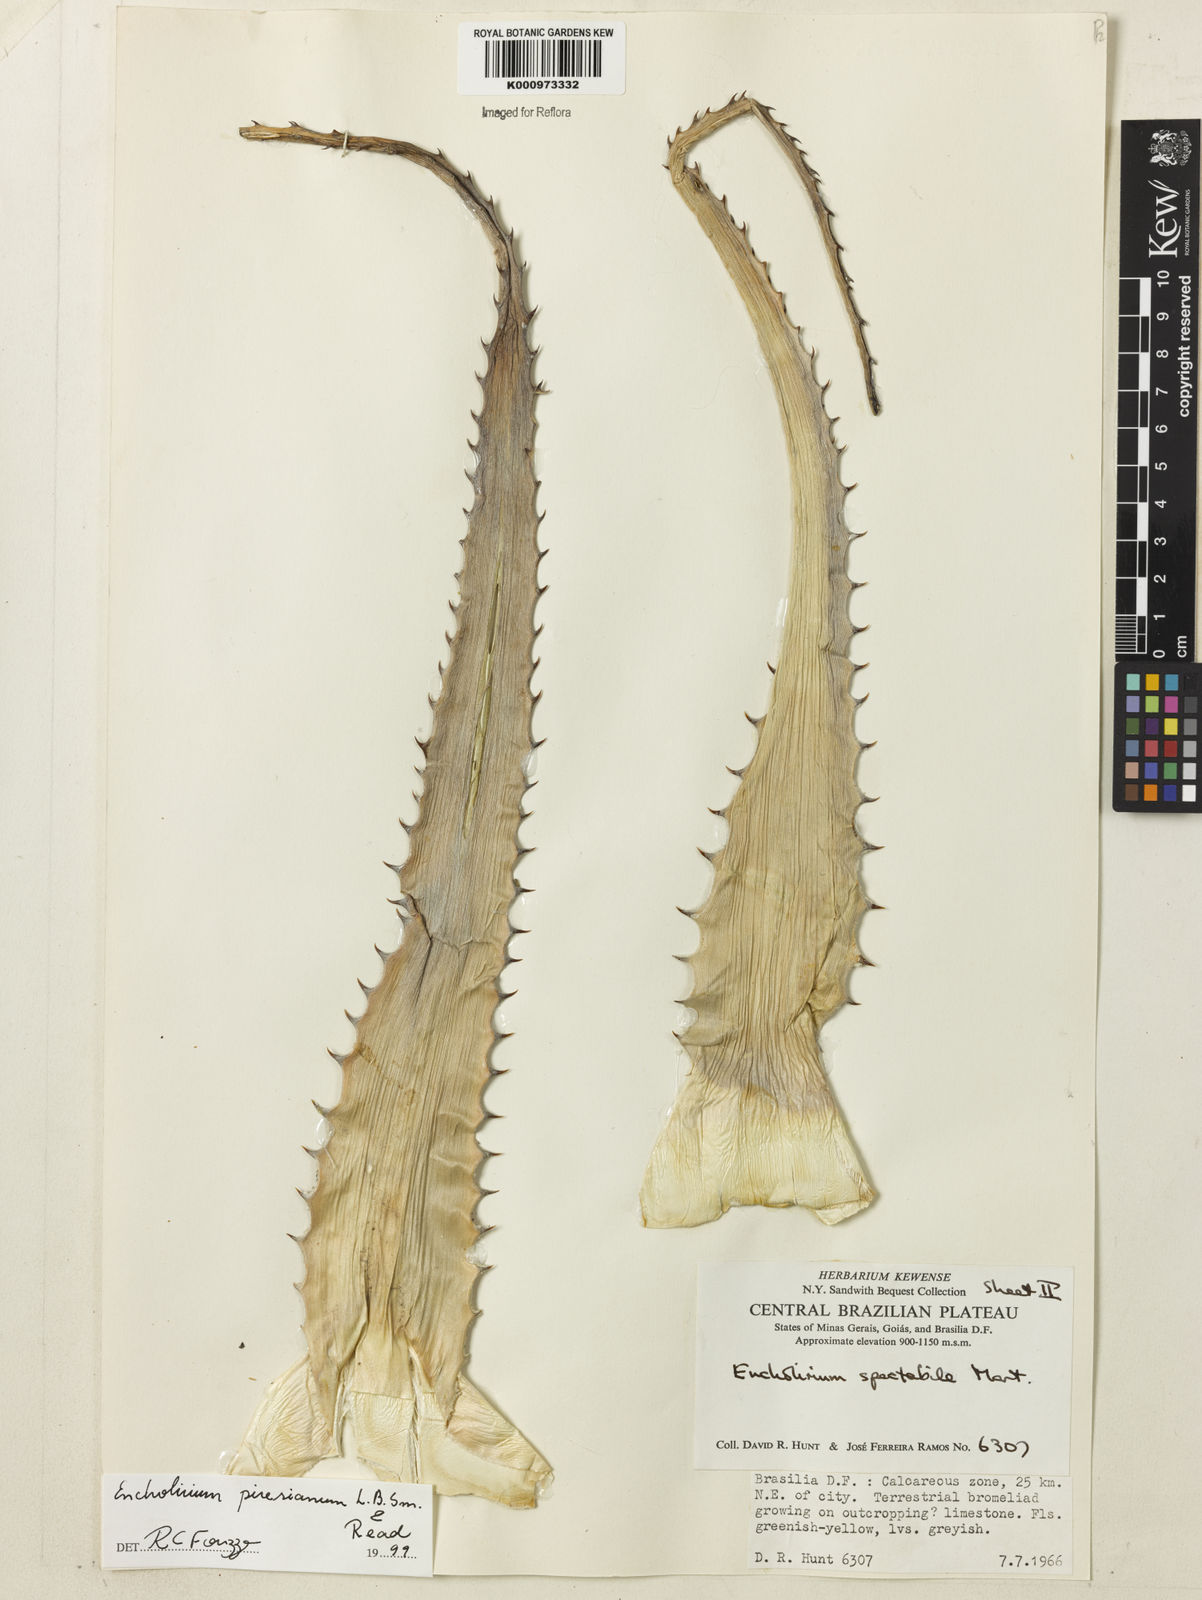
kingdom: Plantae
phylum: Tracheophyta
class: Liliopsida
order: Poales
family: Bromeliaceae
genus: Encholirium
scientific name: Encholirium luxor
